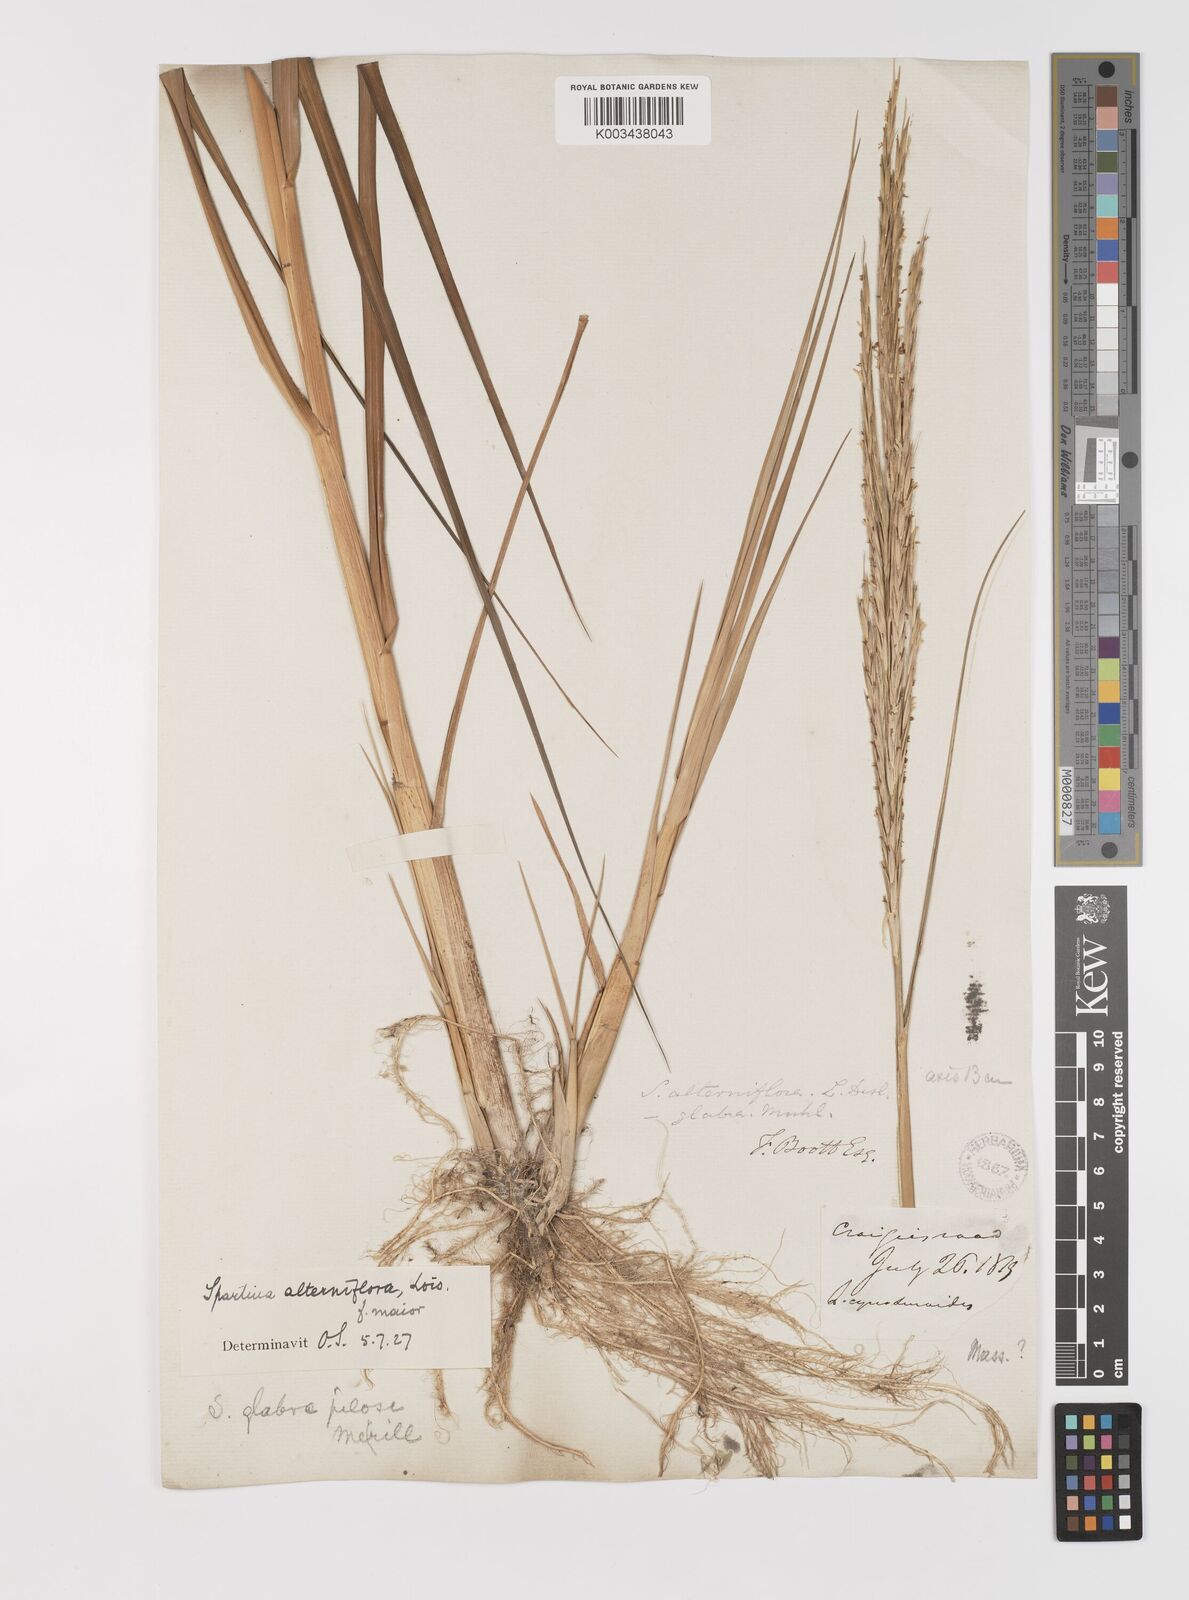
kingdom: Plantae
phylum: Tracheophyta
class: Liliopsida
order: Poales
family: Poaceae
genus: Sporobolus
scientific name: Sporobolus alterniflorus
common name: Atlantic cordgrass
